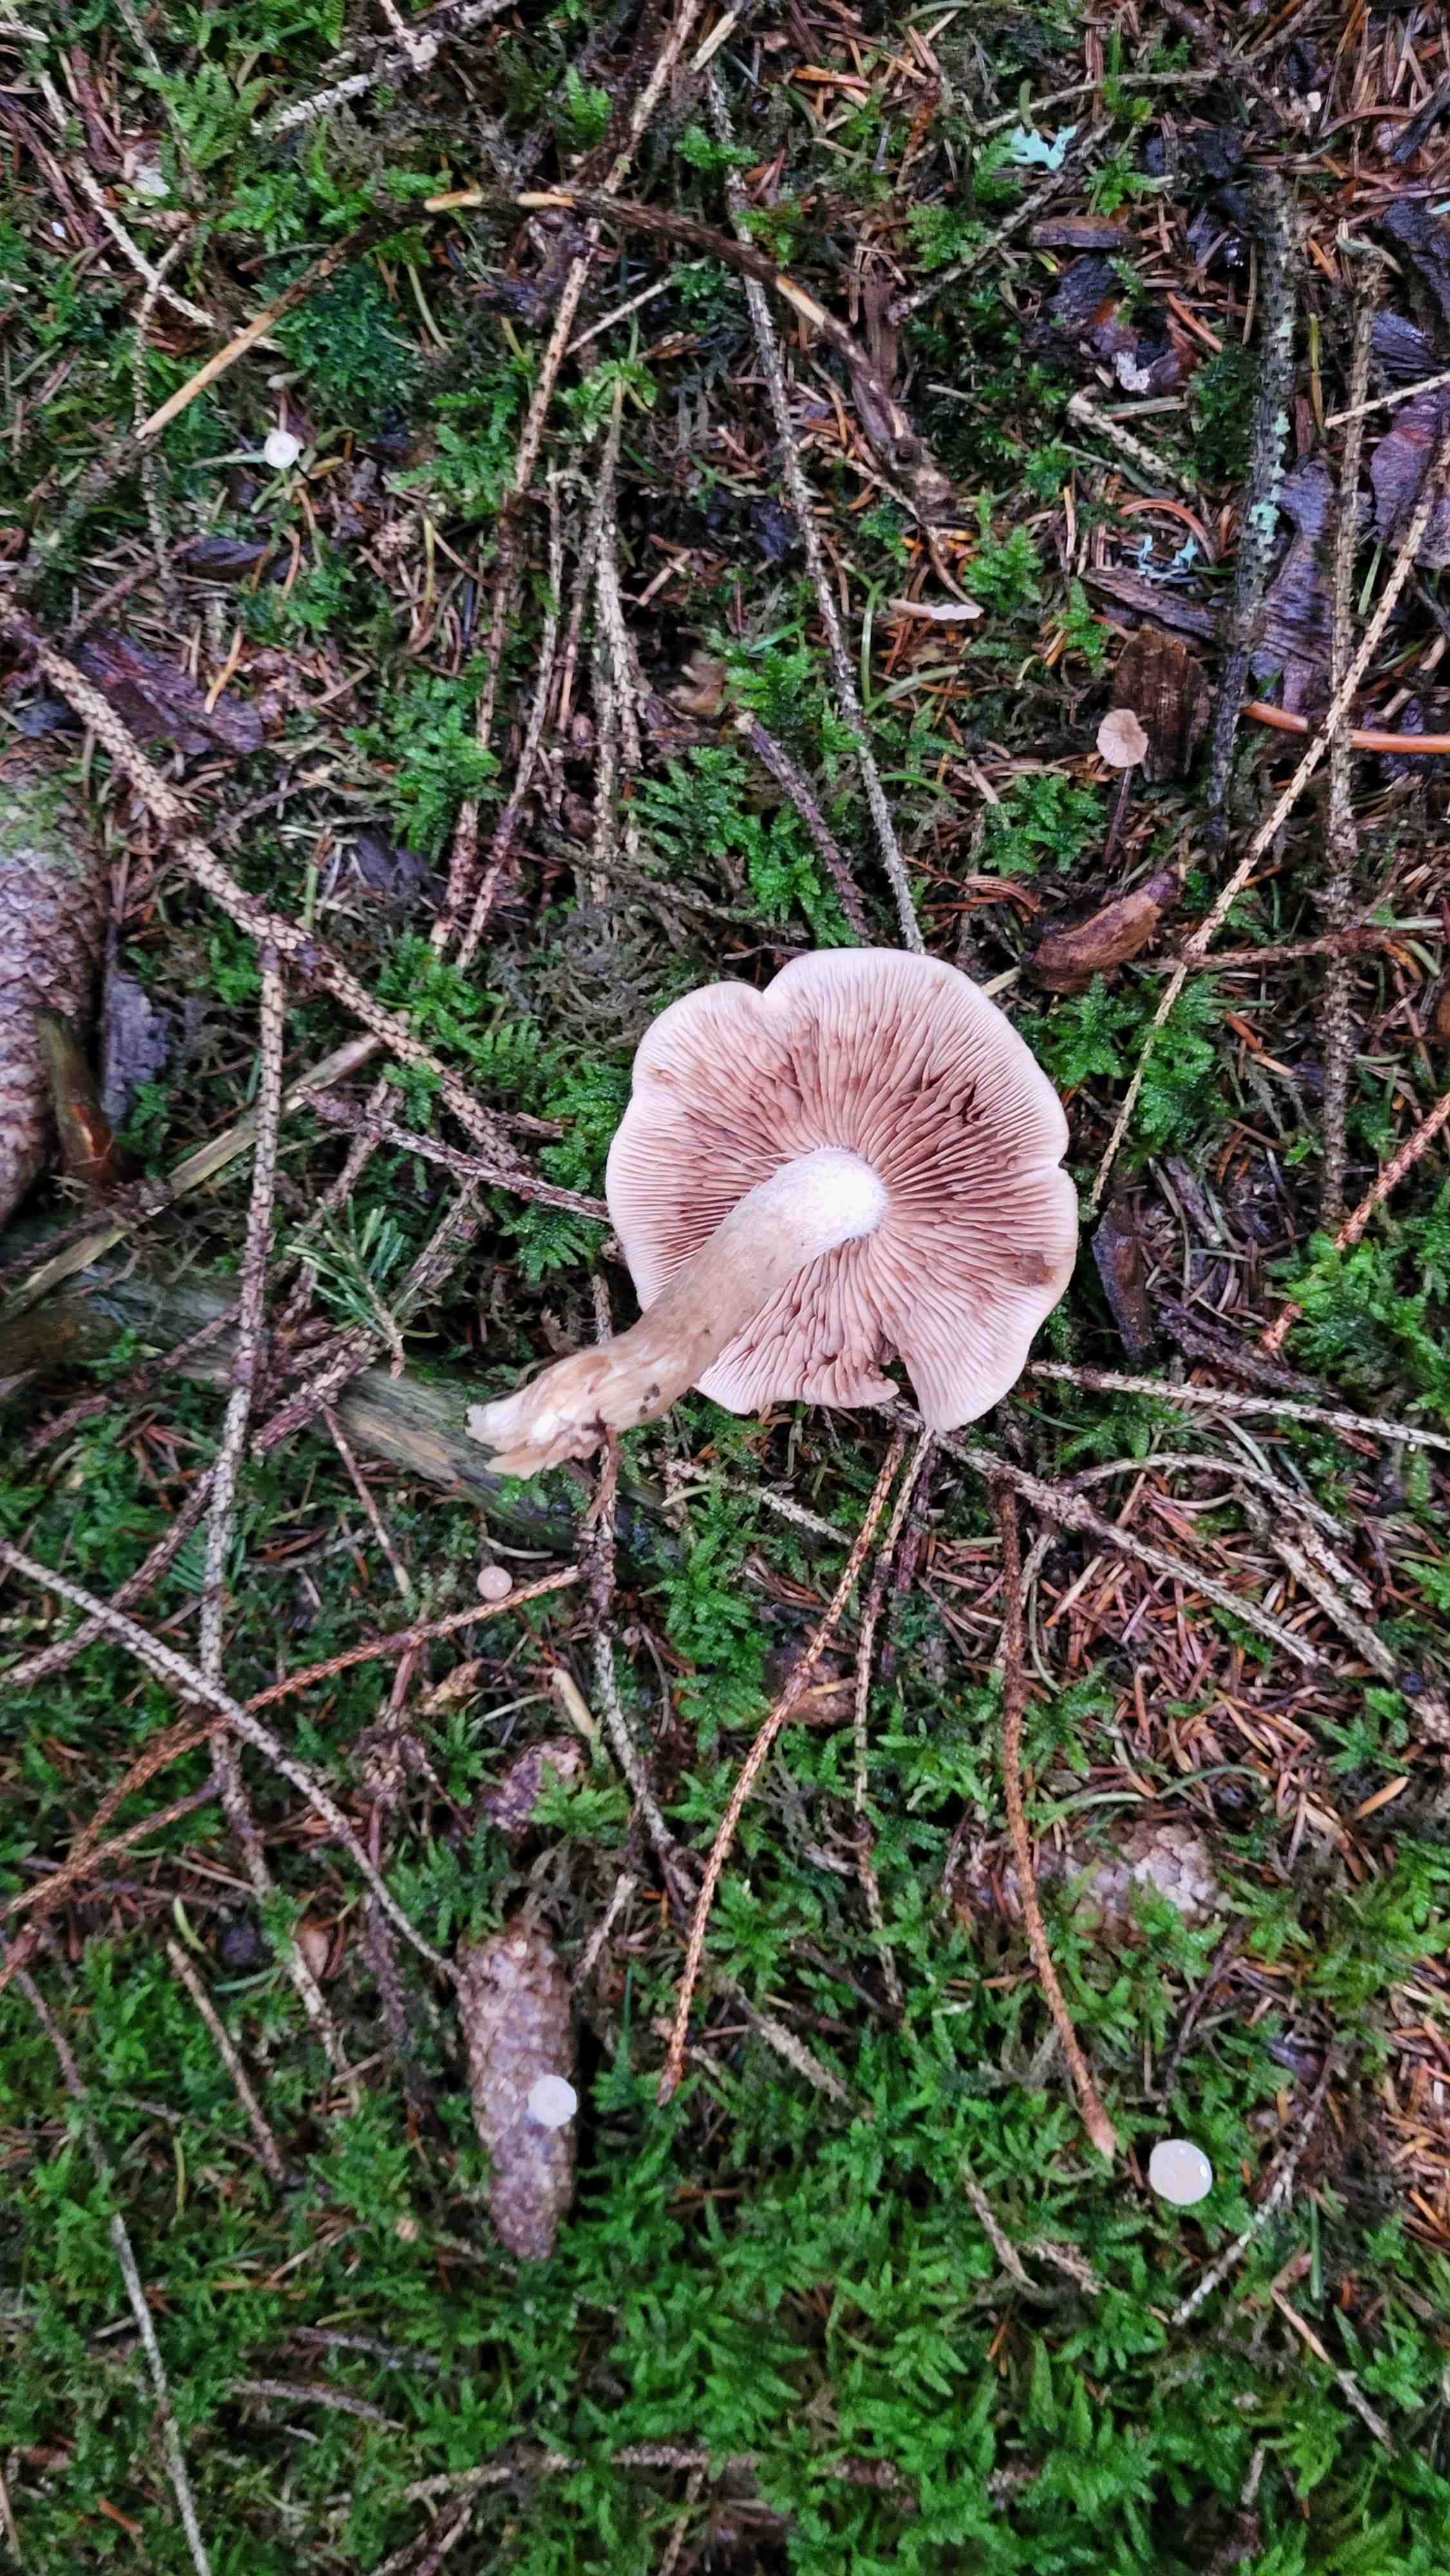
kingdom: Fungi
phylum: Basidiomycota
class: Agaricomycetes
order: Agaricales
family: Hymenogastraceae
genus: Hebeloma
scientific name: Hebeloma
